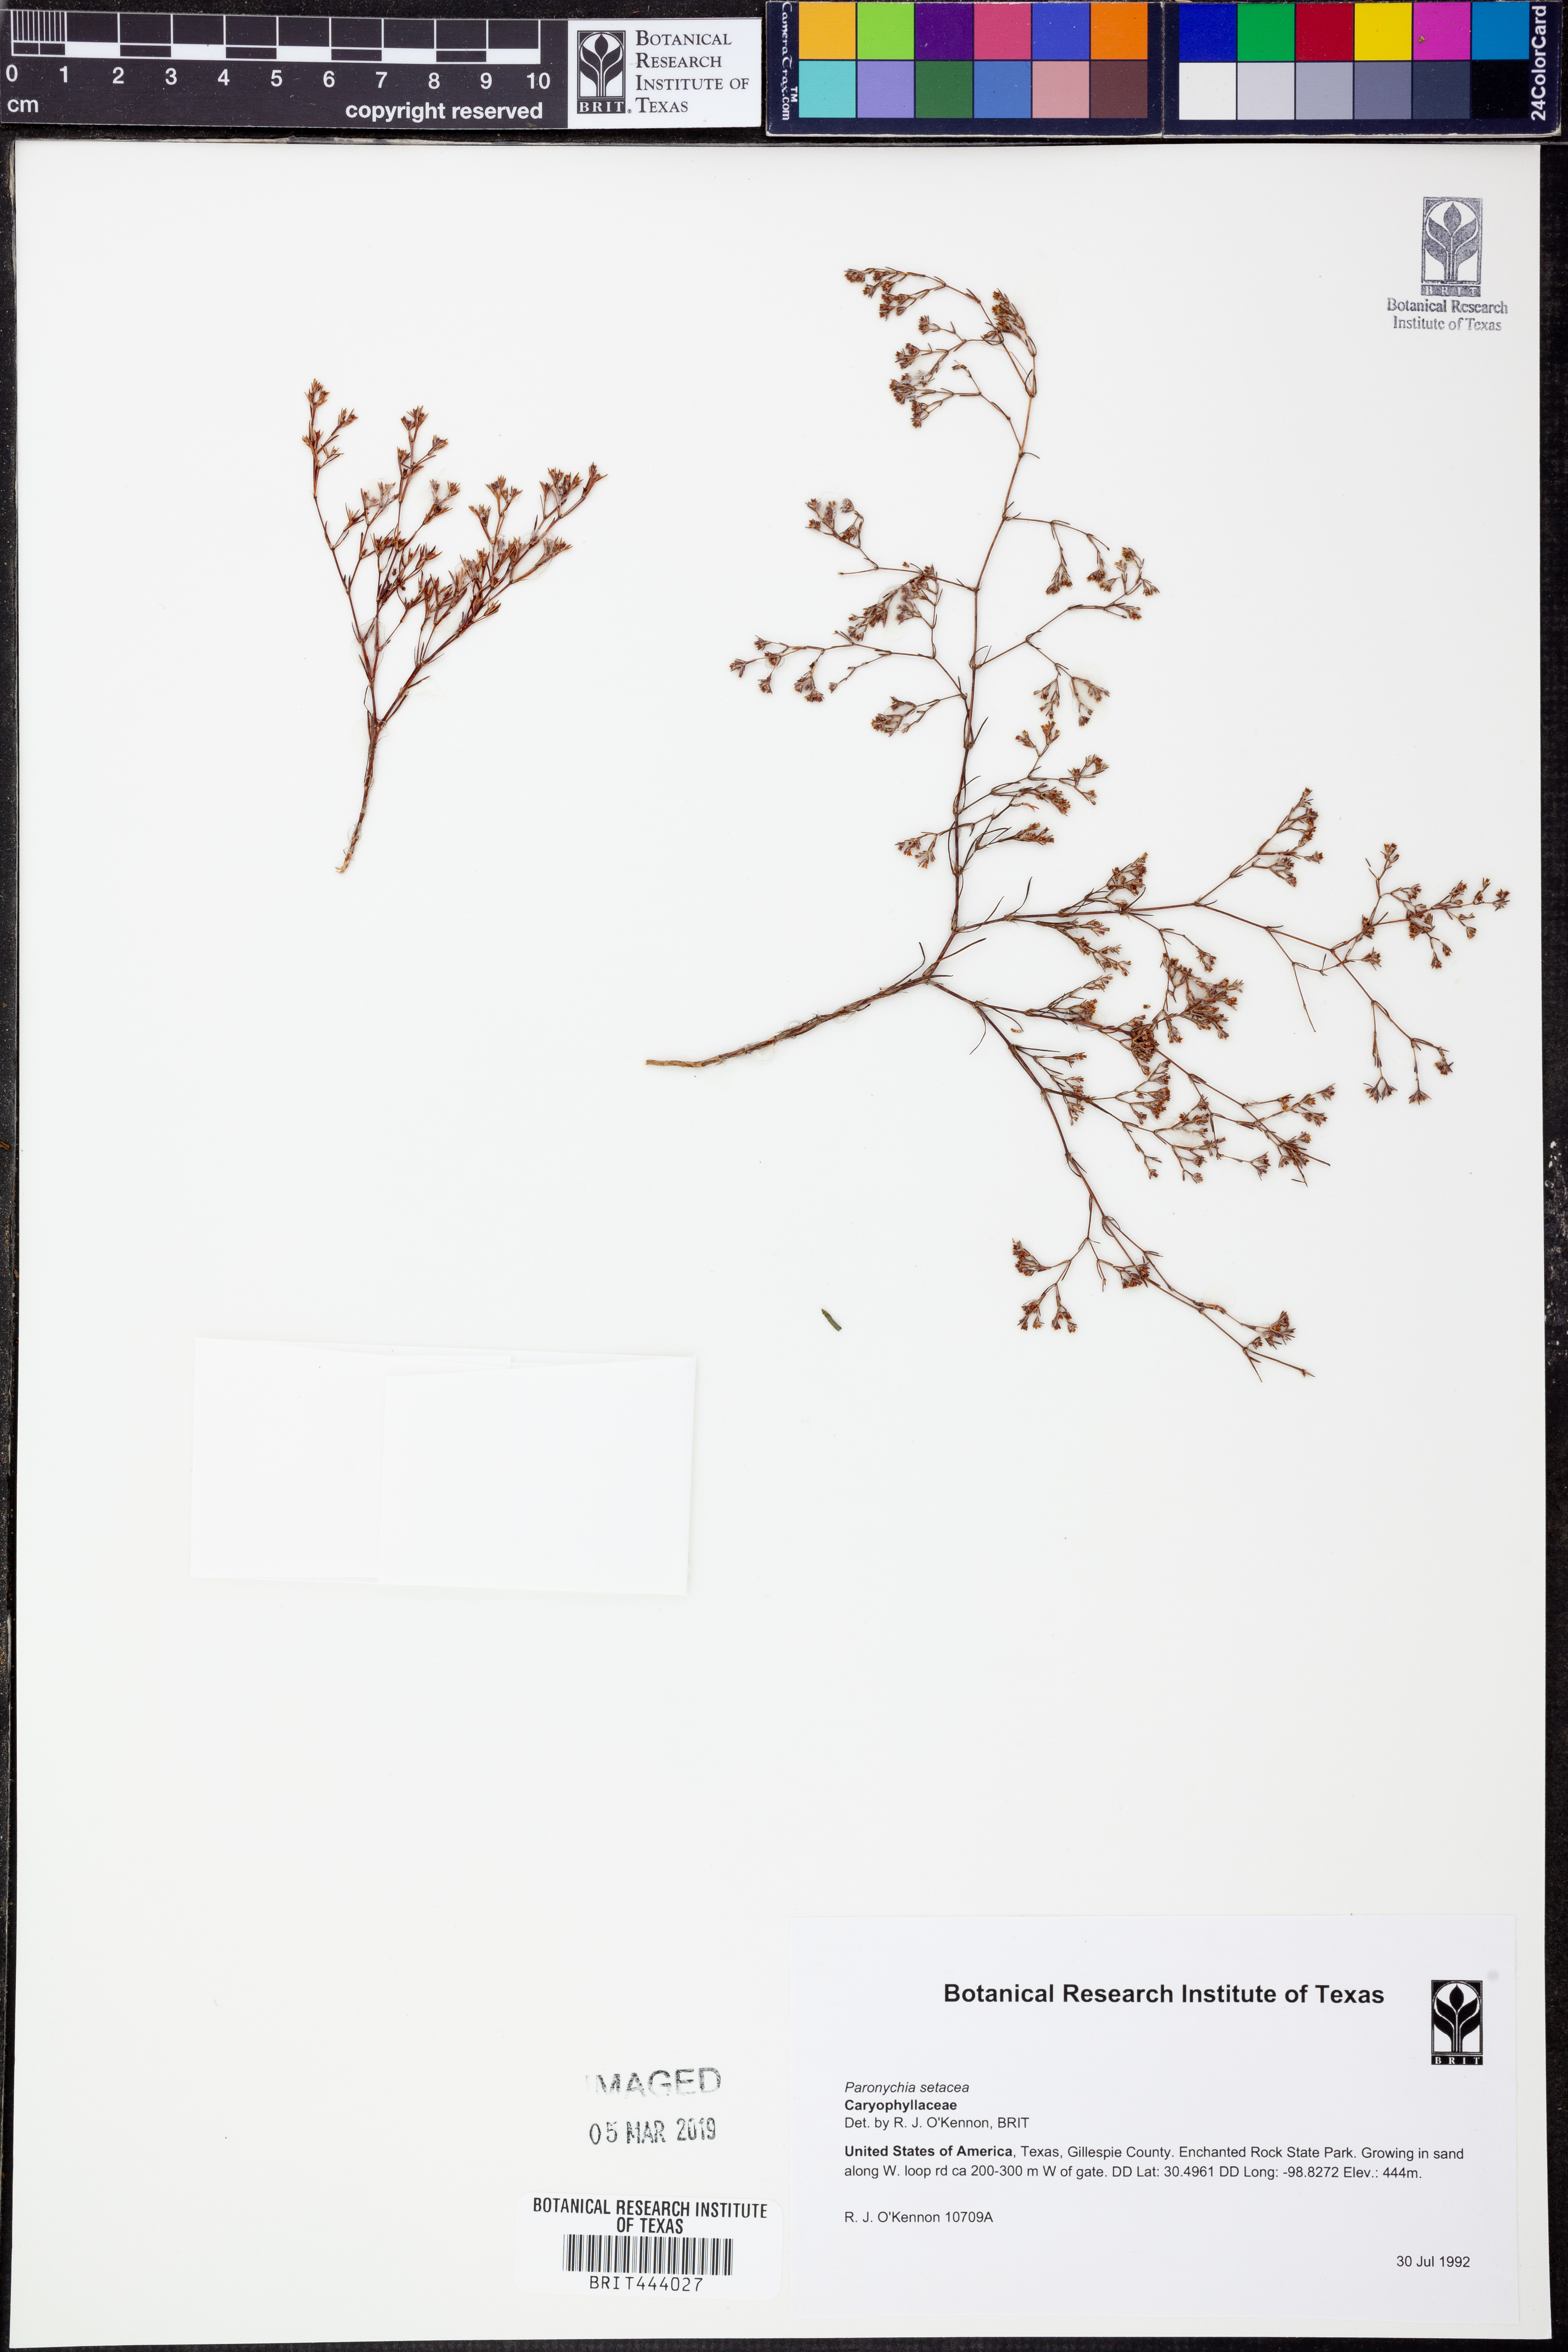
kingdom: Plantae
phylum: Tracheophyta
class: Magnoliopsida
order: Caryophyllales
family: Caryophyllaceae
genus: Paronychia
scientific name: Paronychia setacea
